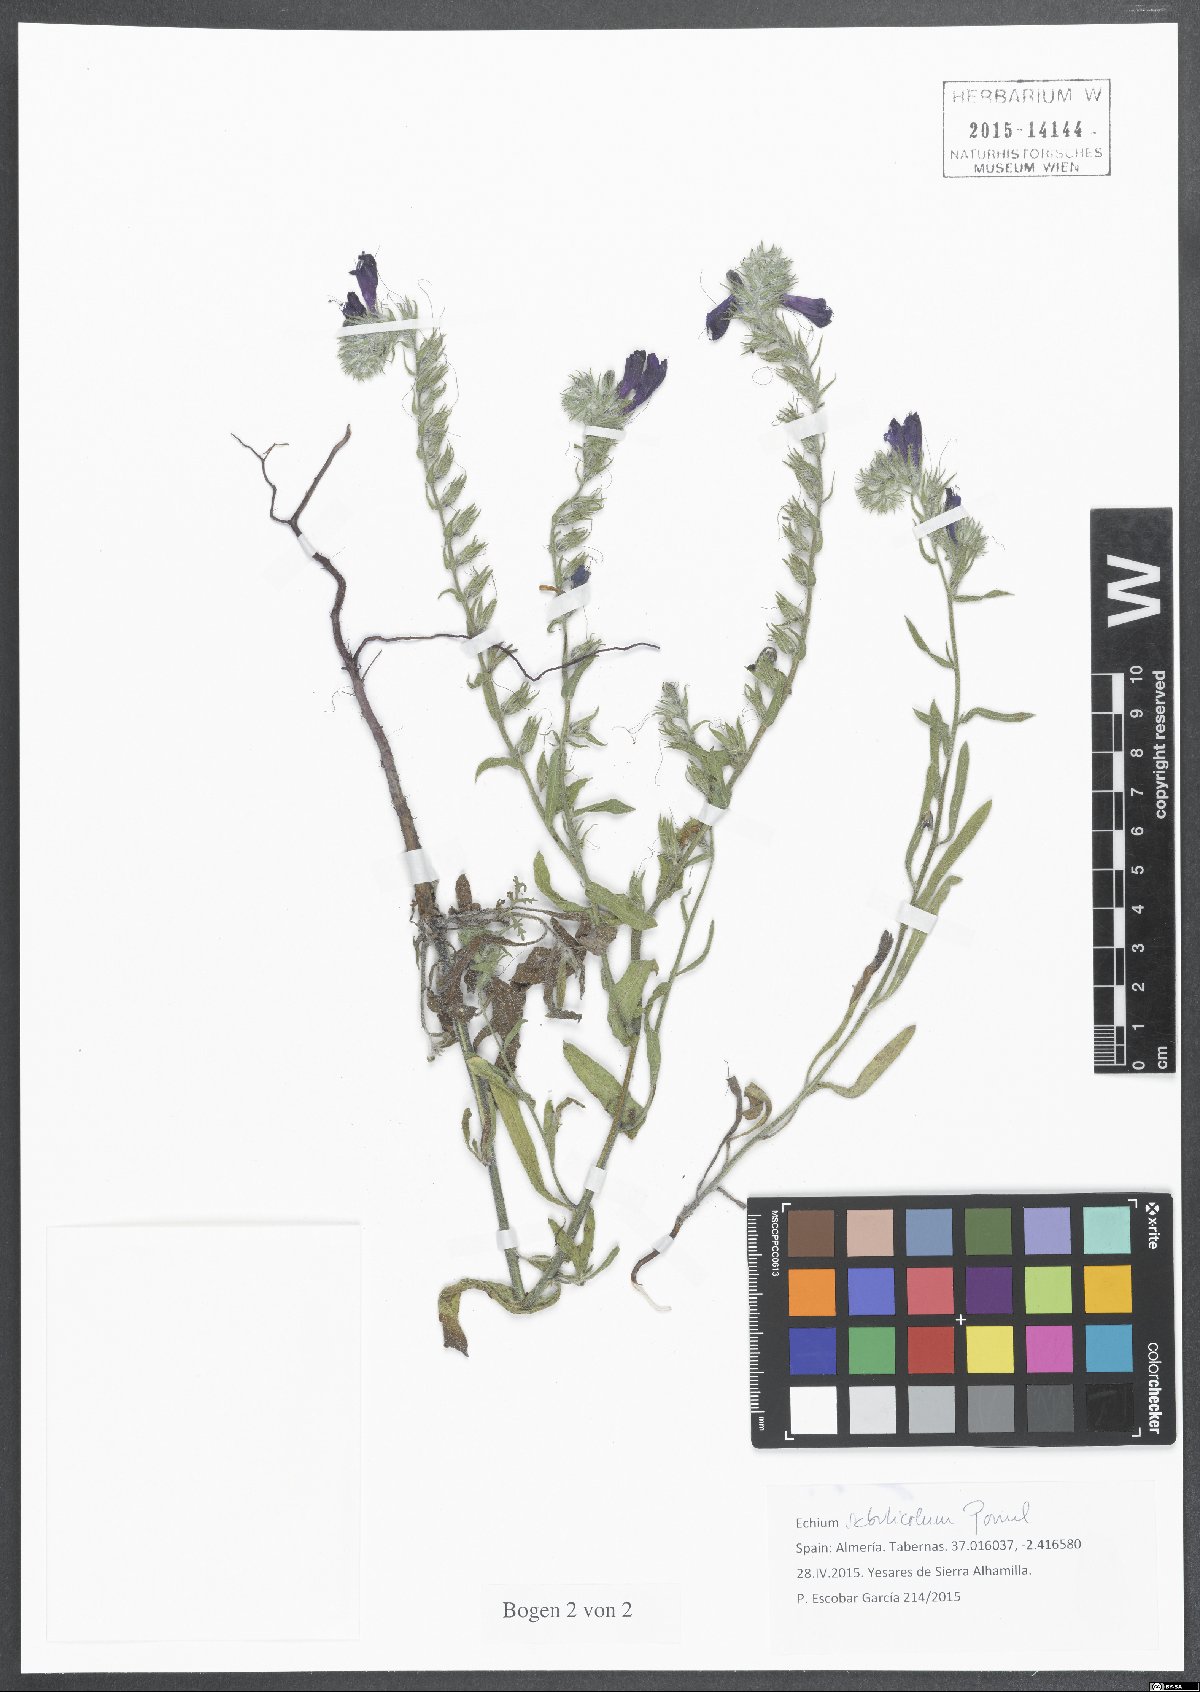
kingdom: Plantae
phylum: Tracheophyta
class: Magnoliopsida
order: Boraginales
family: Boraginaceae
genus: Echium
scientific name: Echium sabulicola
